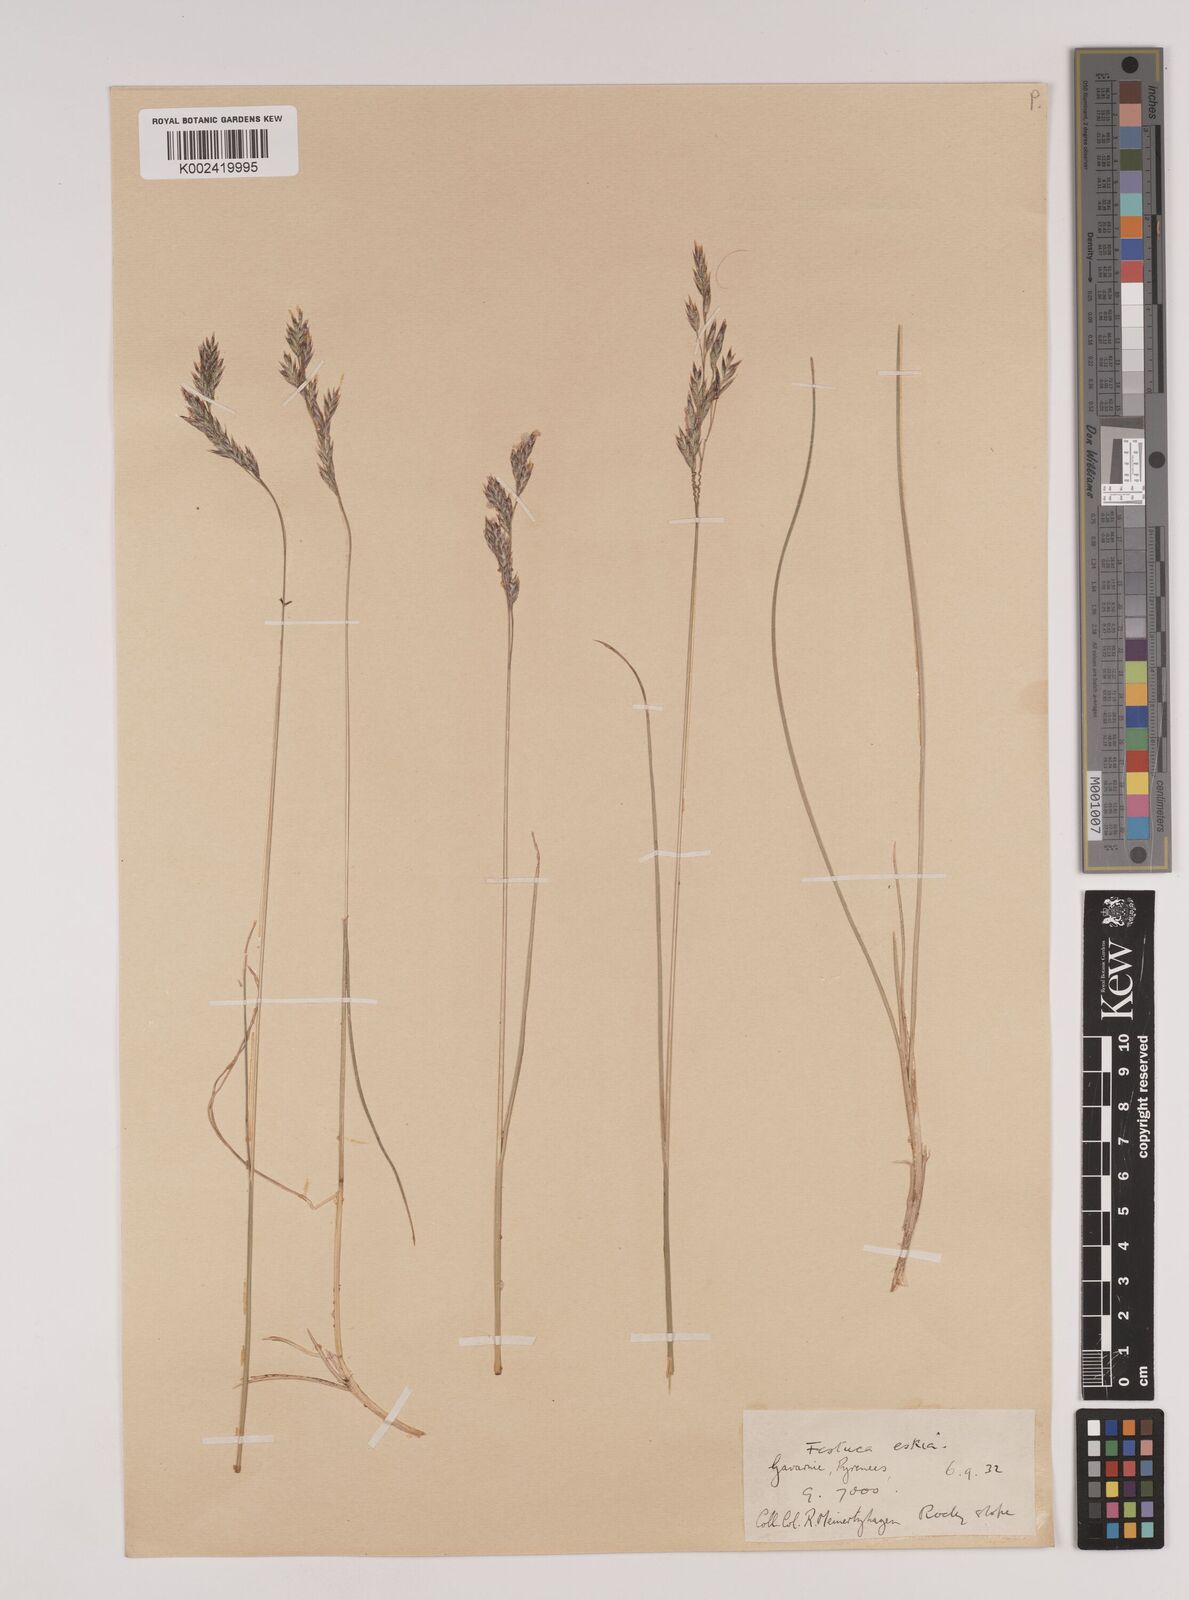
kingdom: Plantae
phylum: Tracheophyta
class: Liliopsida
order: Poales
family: Poaceae
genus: Festuca
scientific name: Festuca eskia
